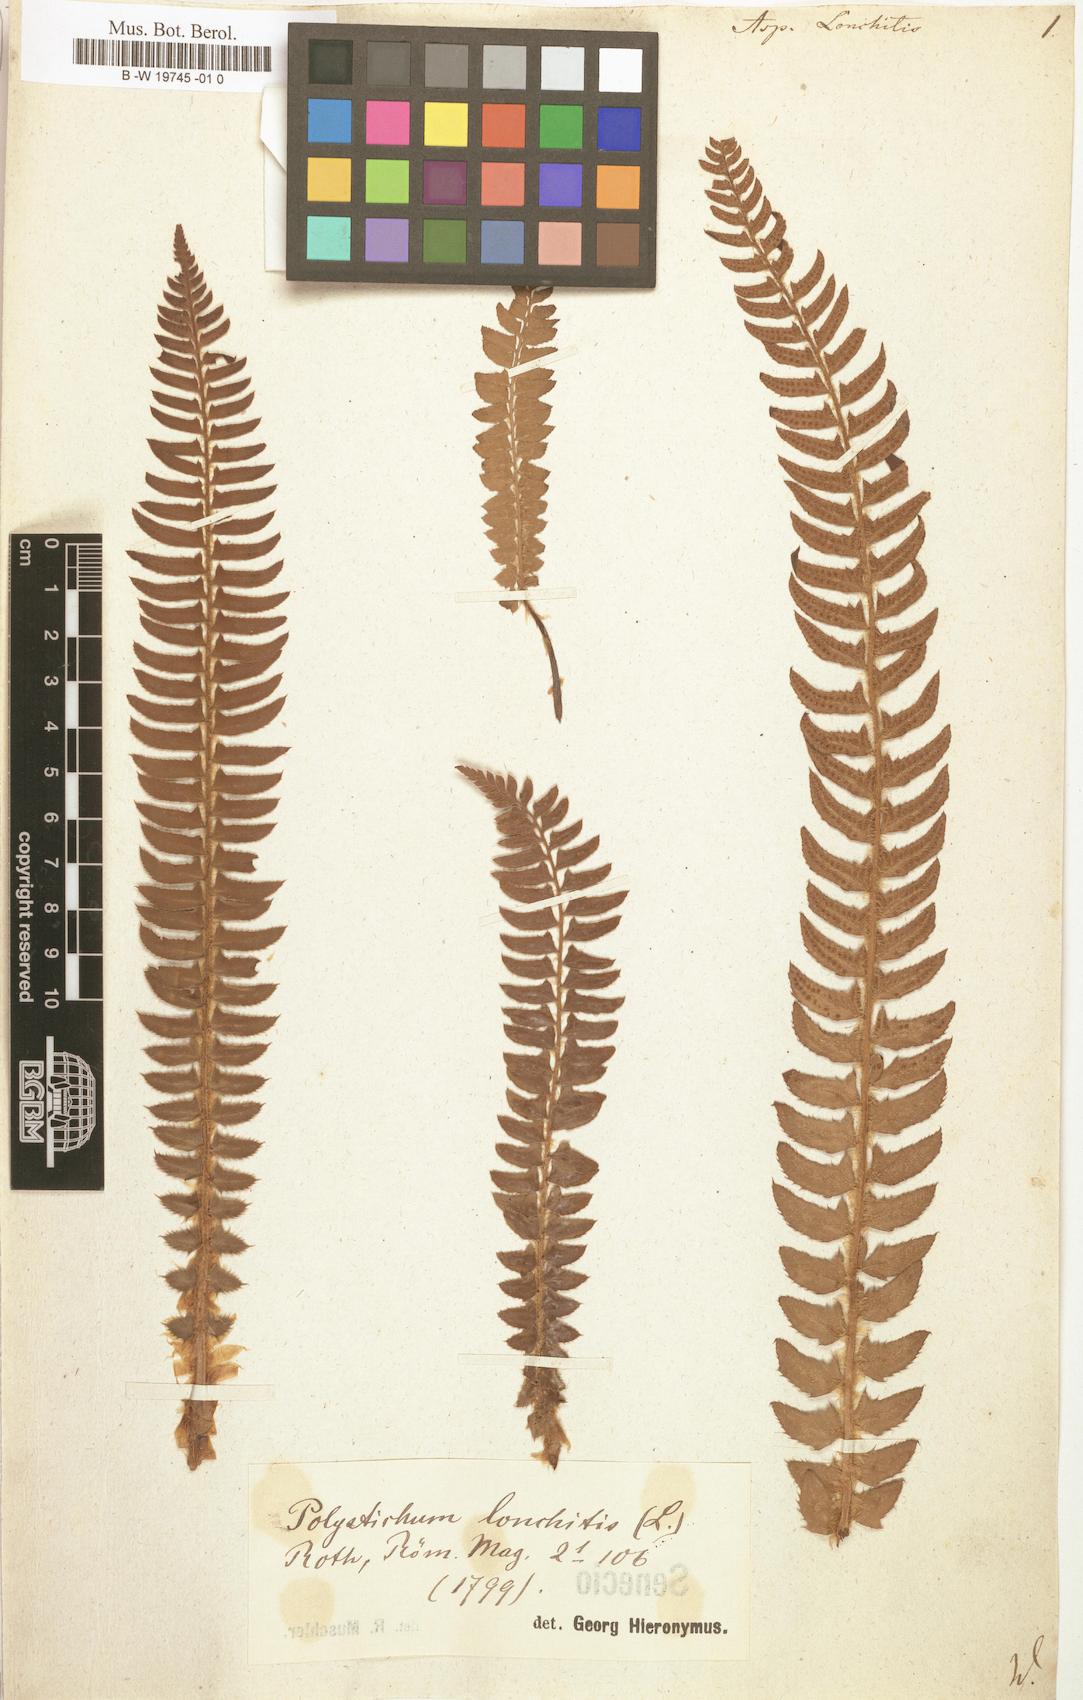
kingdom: Plantae
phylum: Tracheophyta
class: Polypodiopsida
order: Polypodiales
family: Dryopteridaceae
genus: Polystichum
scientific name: Polystichum lonchitis
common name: Holly fern
